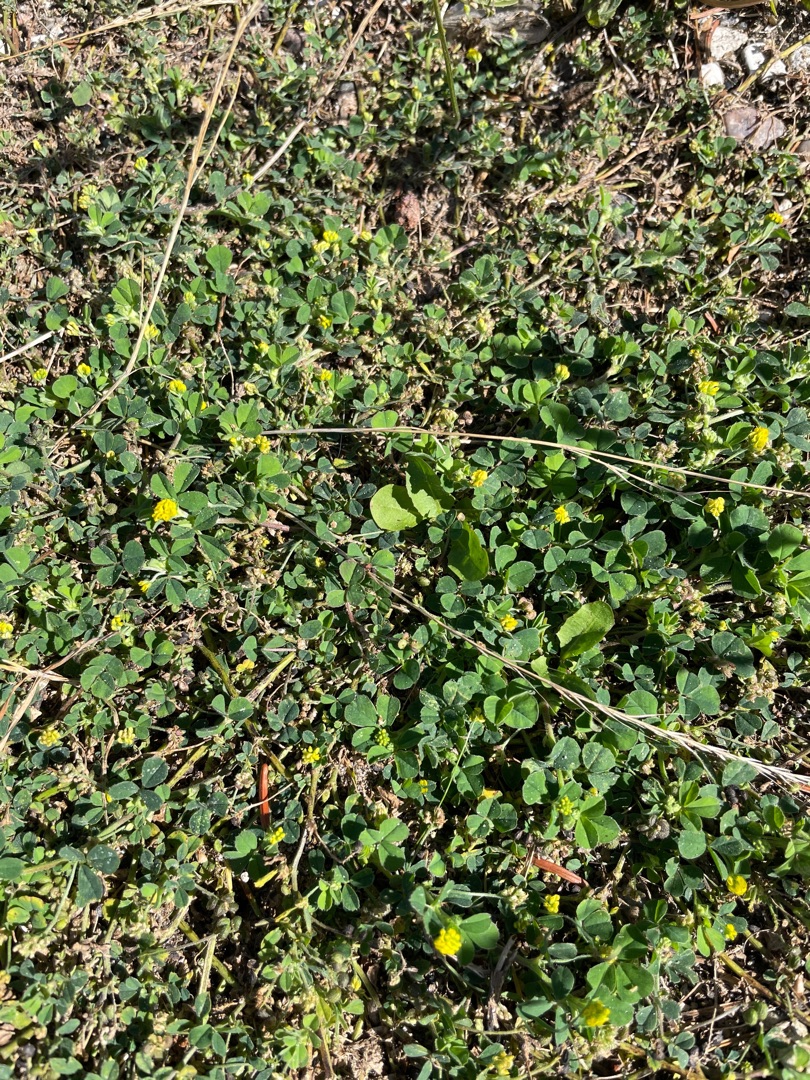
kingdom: Plantae
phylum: Tracheophyta
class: Magnoliopsida
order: Fabales
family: Fabaceae
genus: Medicago
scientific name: Medicago lupulina
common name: Humle-sneglebælg
